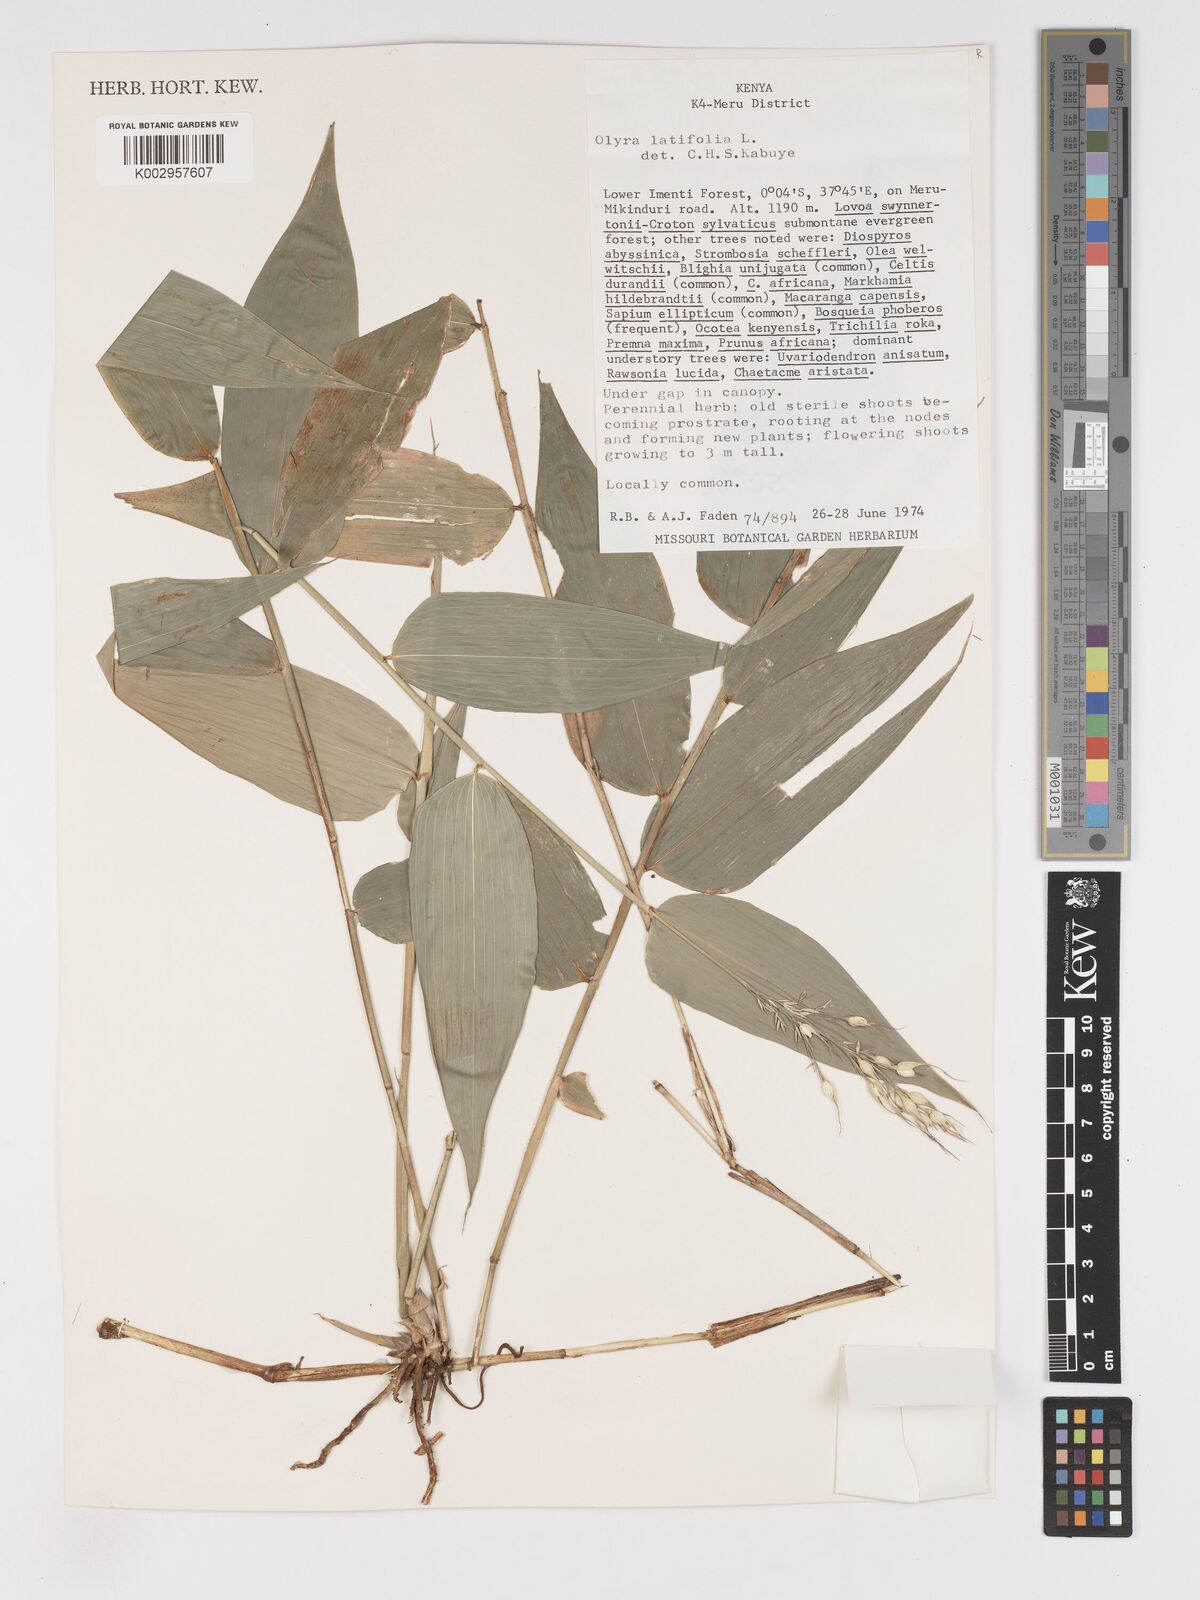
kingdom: Plantae
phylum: Tracheophyta
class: Liliopsida
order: Poales
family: Poaceae
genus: Olyra
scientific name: Olyra latifolia
